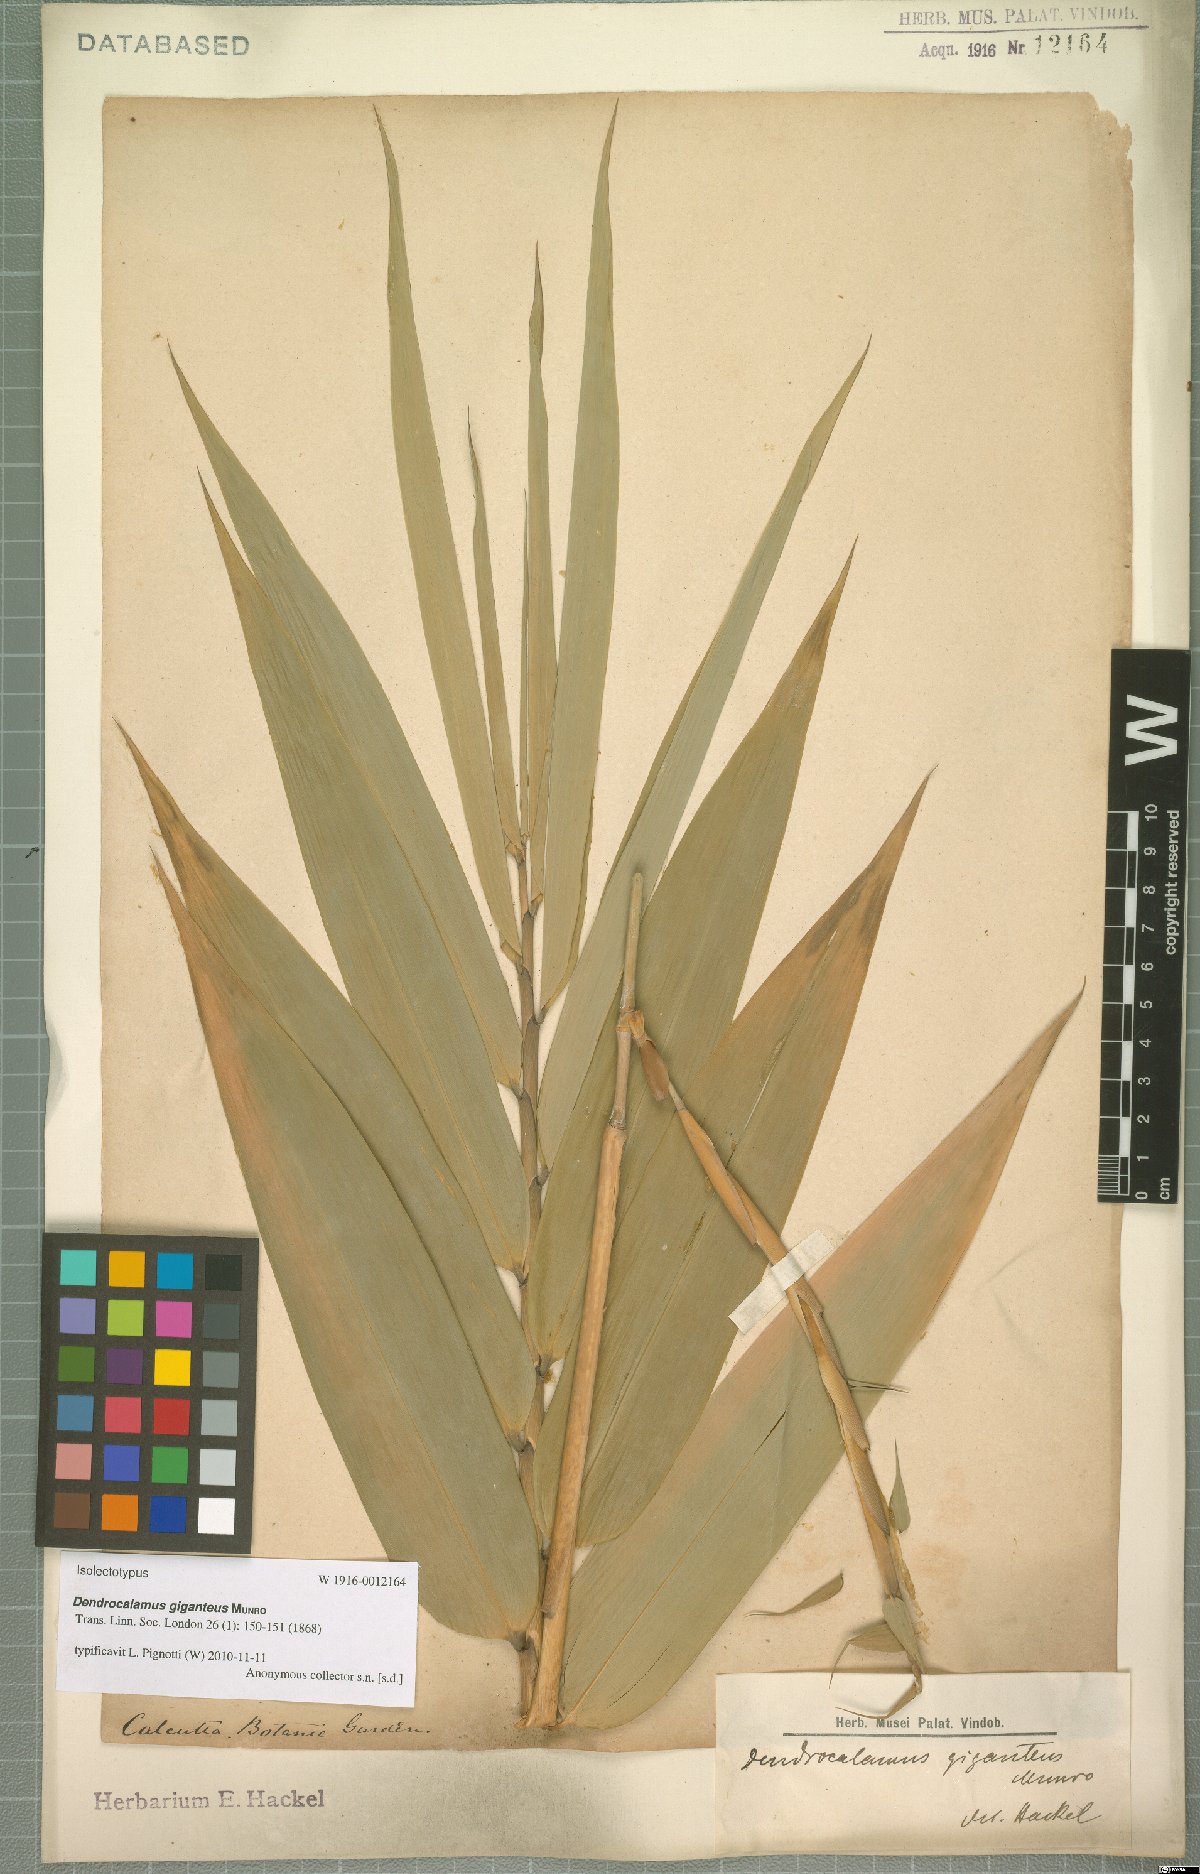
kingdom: Plantae
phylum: Tracheophyta
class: Liliopsida
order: Poales
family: Poaceae
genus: Dendrocalamus
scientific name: Dendrocalamus giganteus
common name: Giant bamboo
